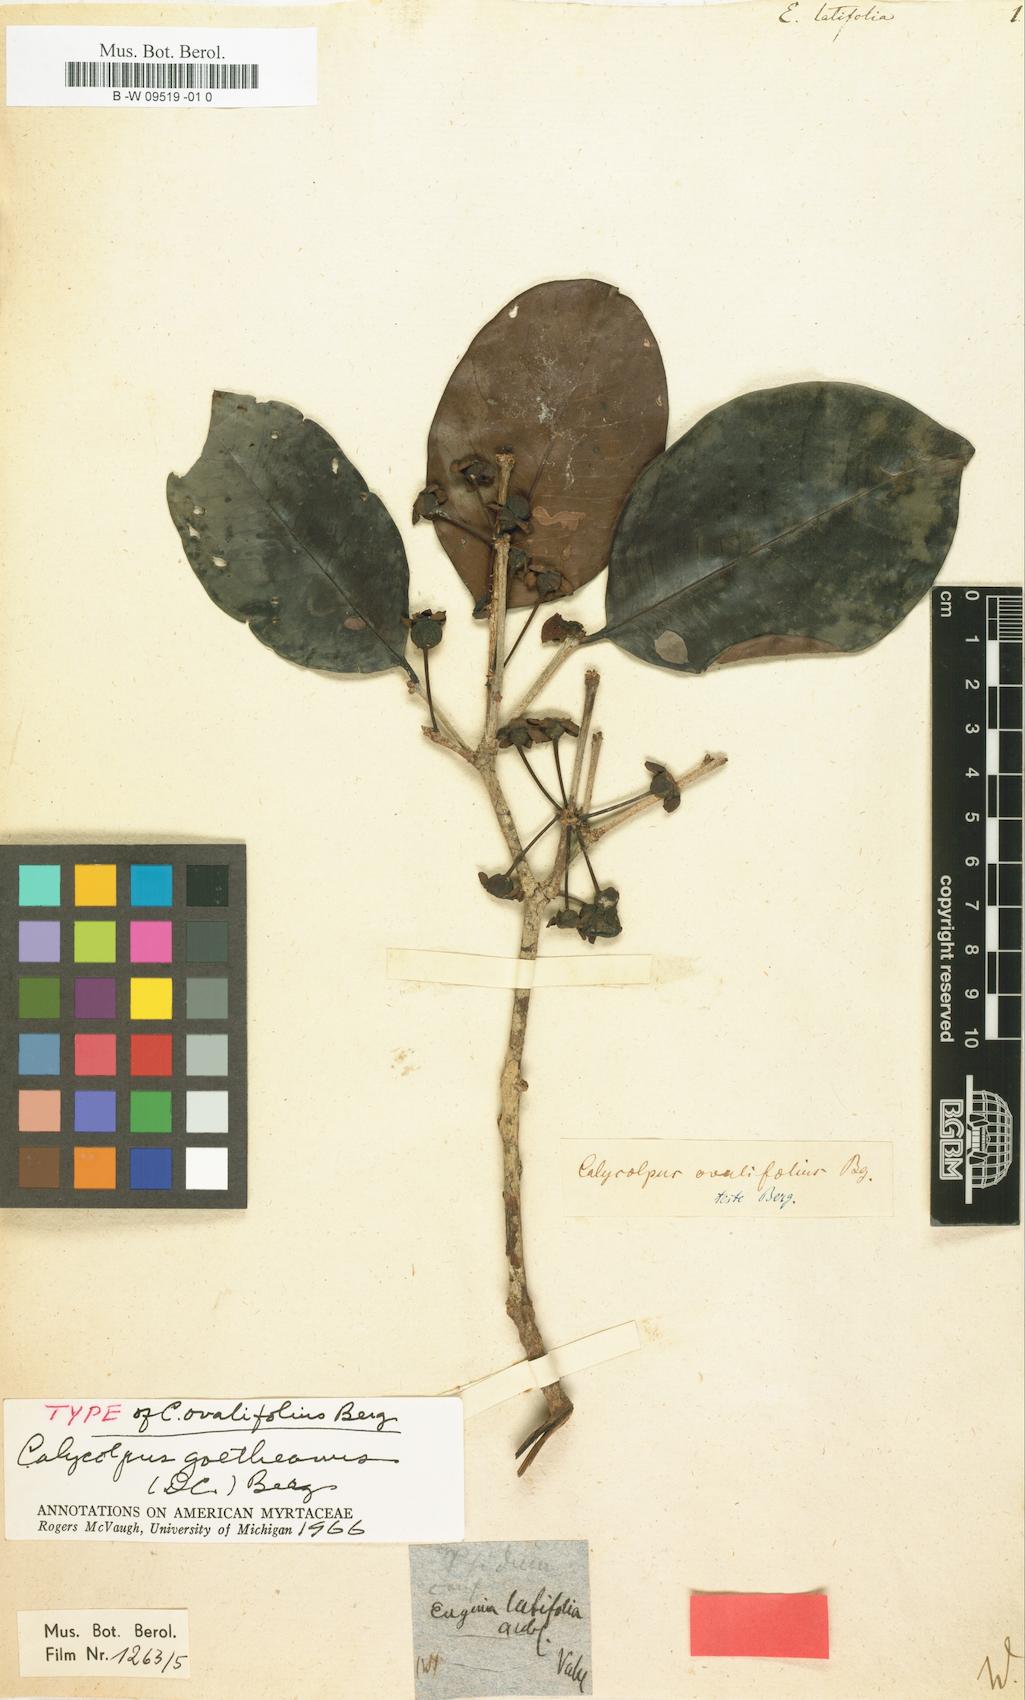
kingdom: Plantae
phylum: Tracheophyta
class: Magnoliopsida
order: Myrtales
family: Myrtaceae
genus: Eugenia
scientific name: Eugenia latifolia
